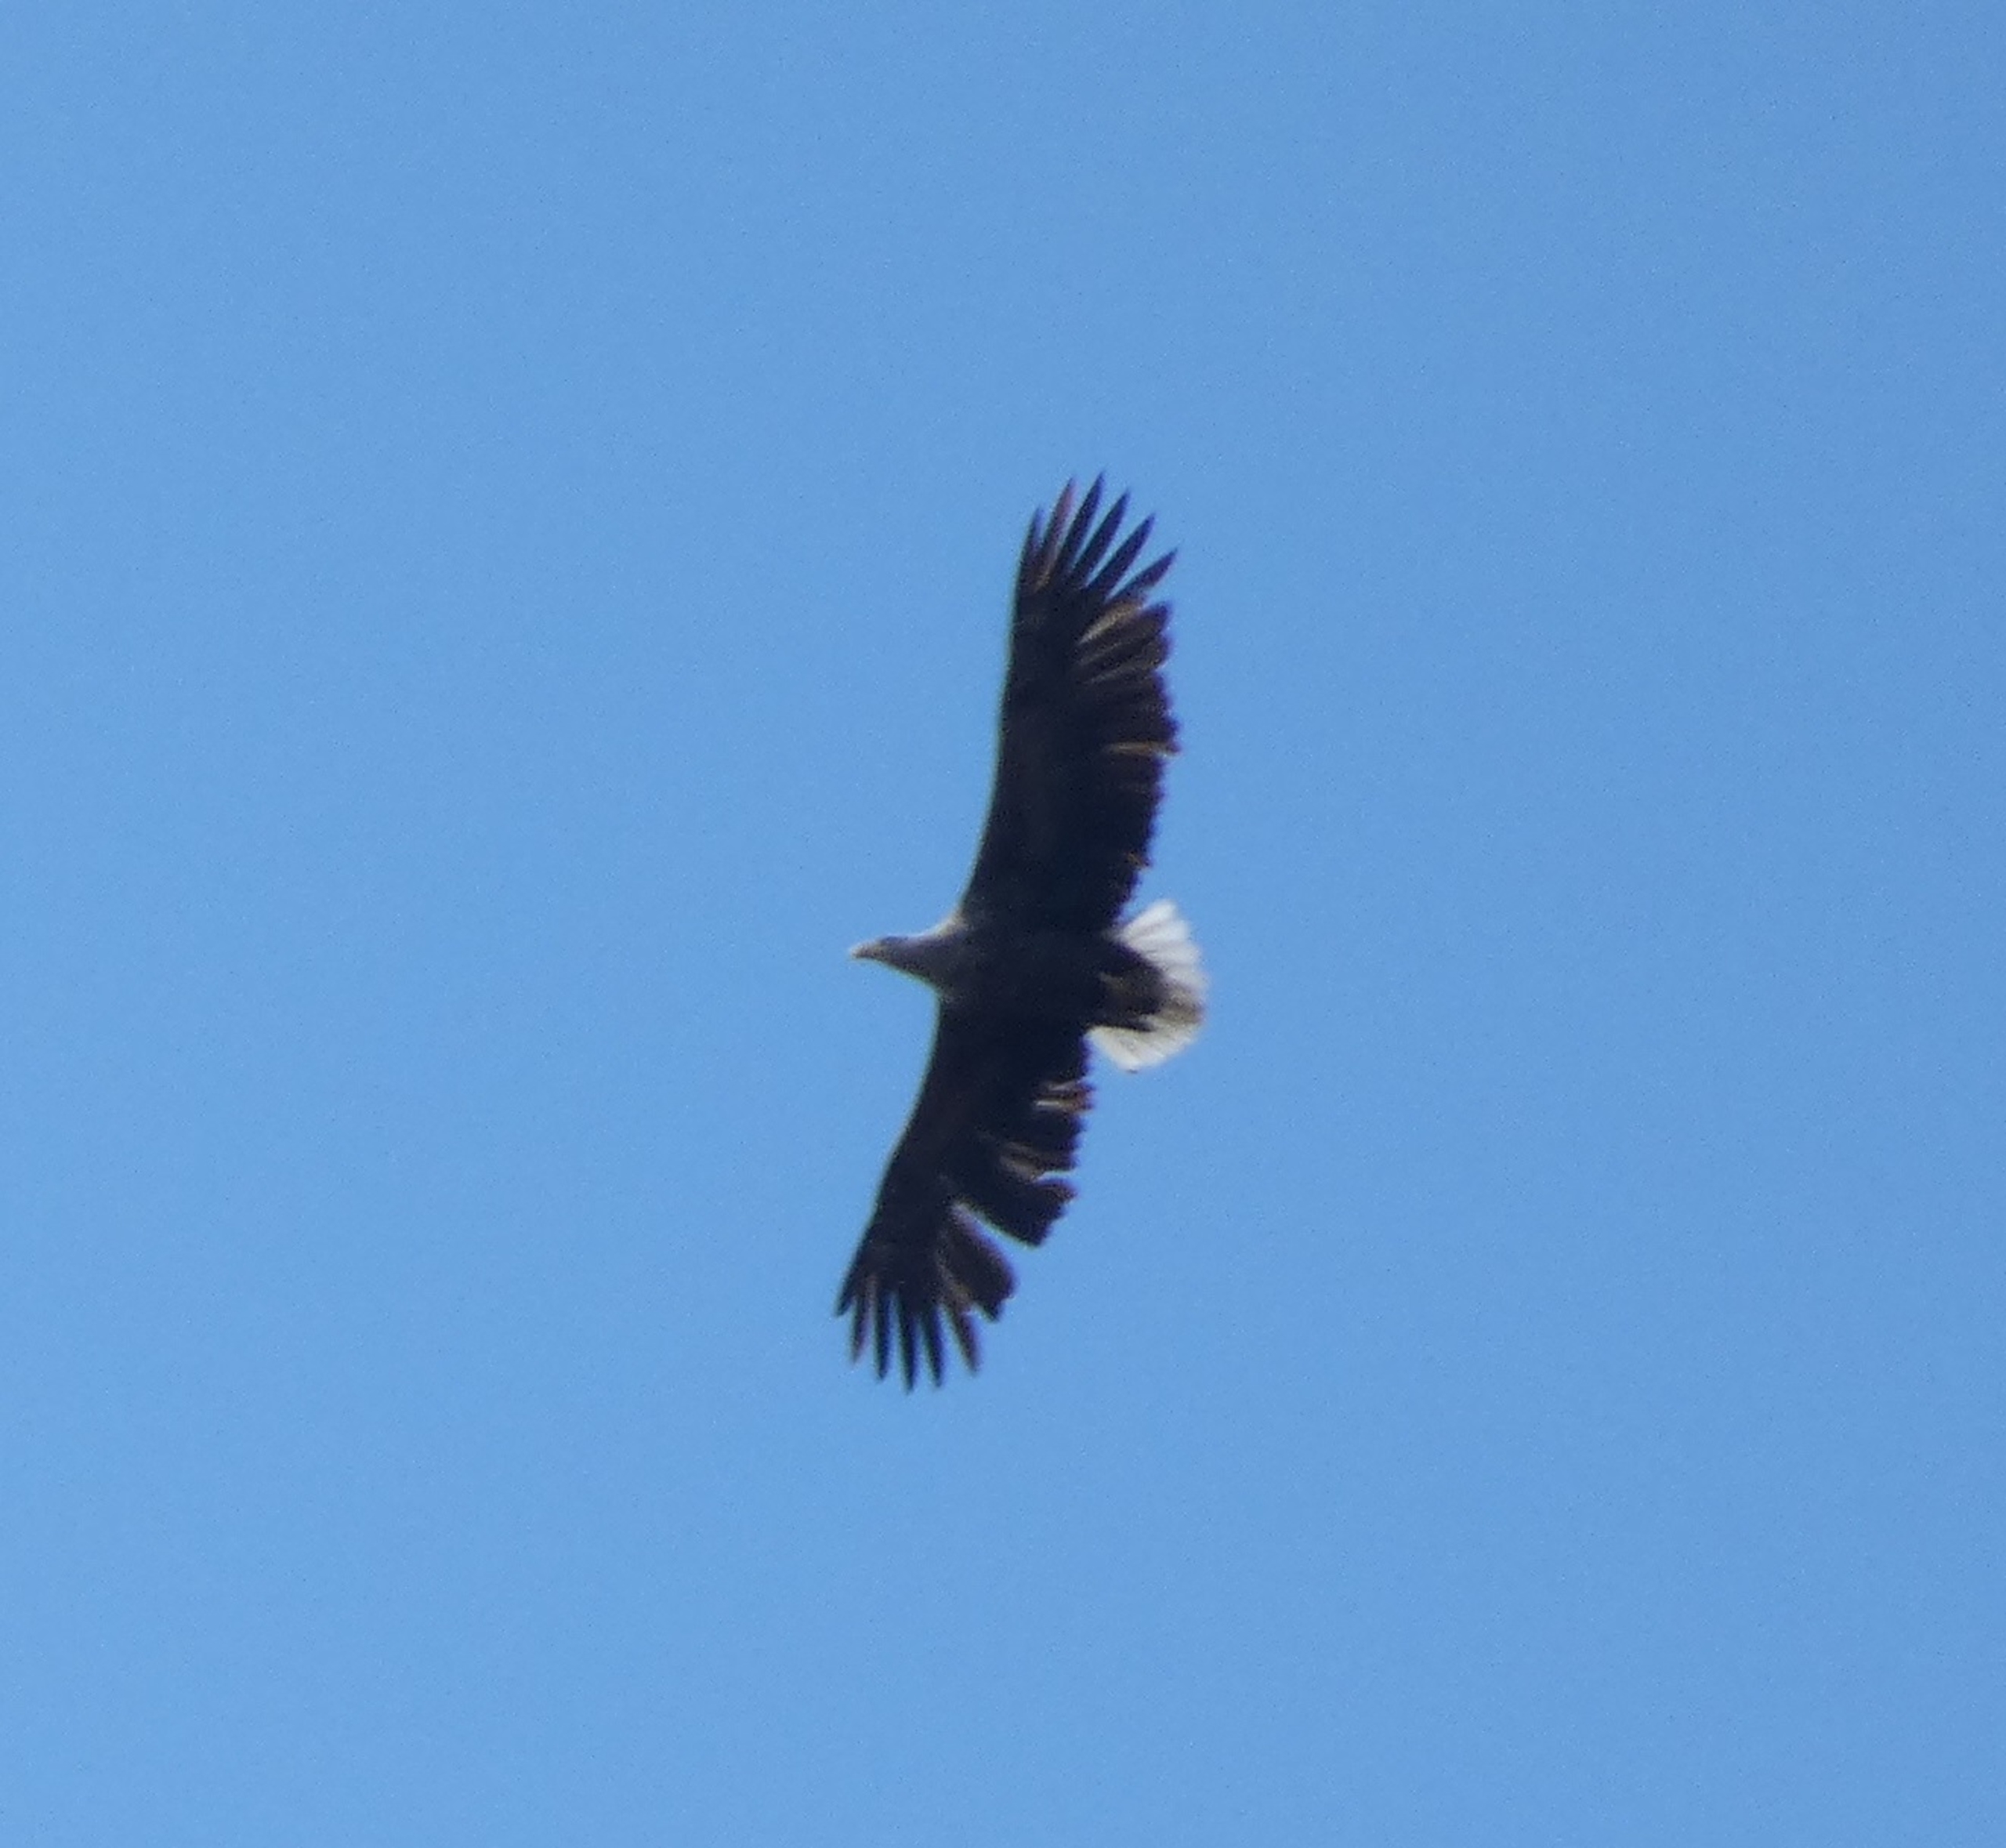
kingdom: Animalia
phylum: Chordata
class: Aves
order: Accipitriformes
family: Accipitridae
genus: Haliaeetus
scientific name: Haliaeetus albicilla
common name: Havørn
